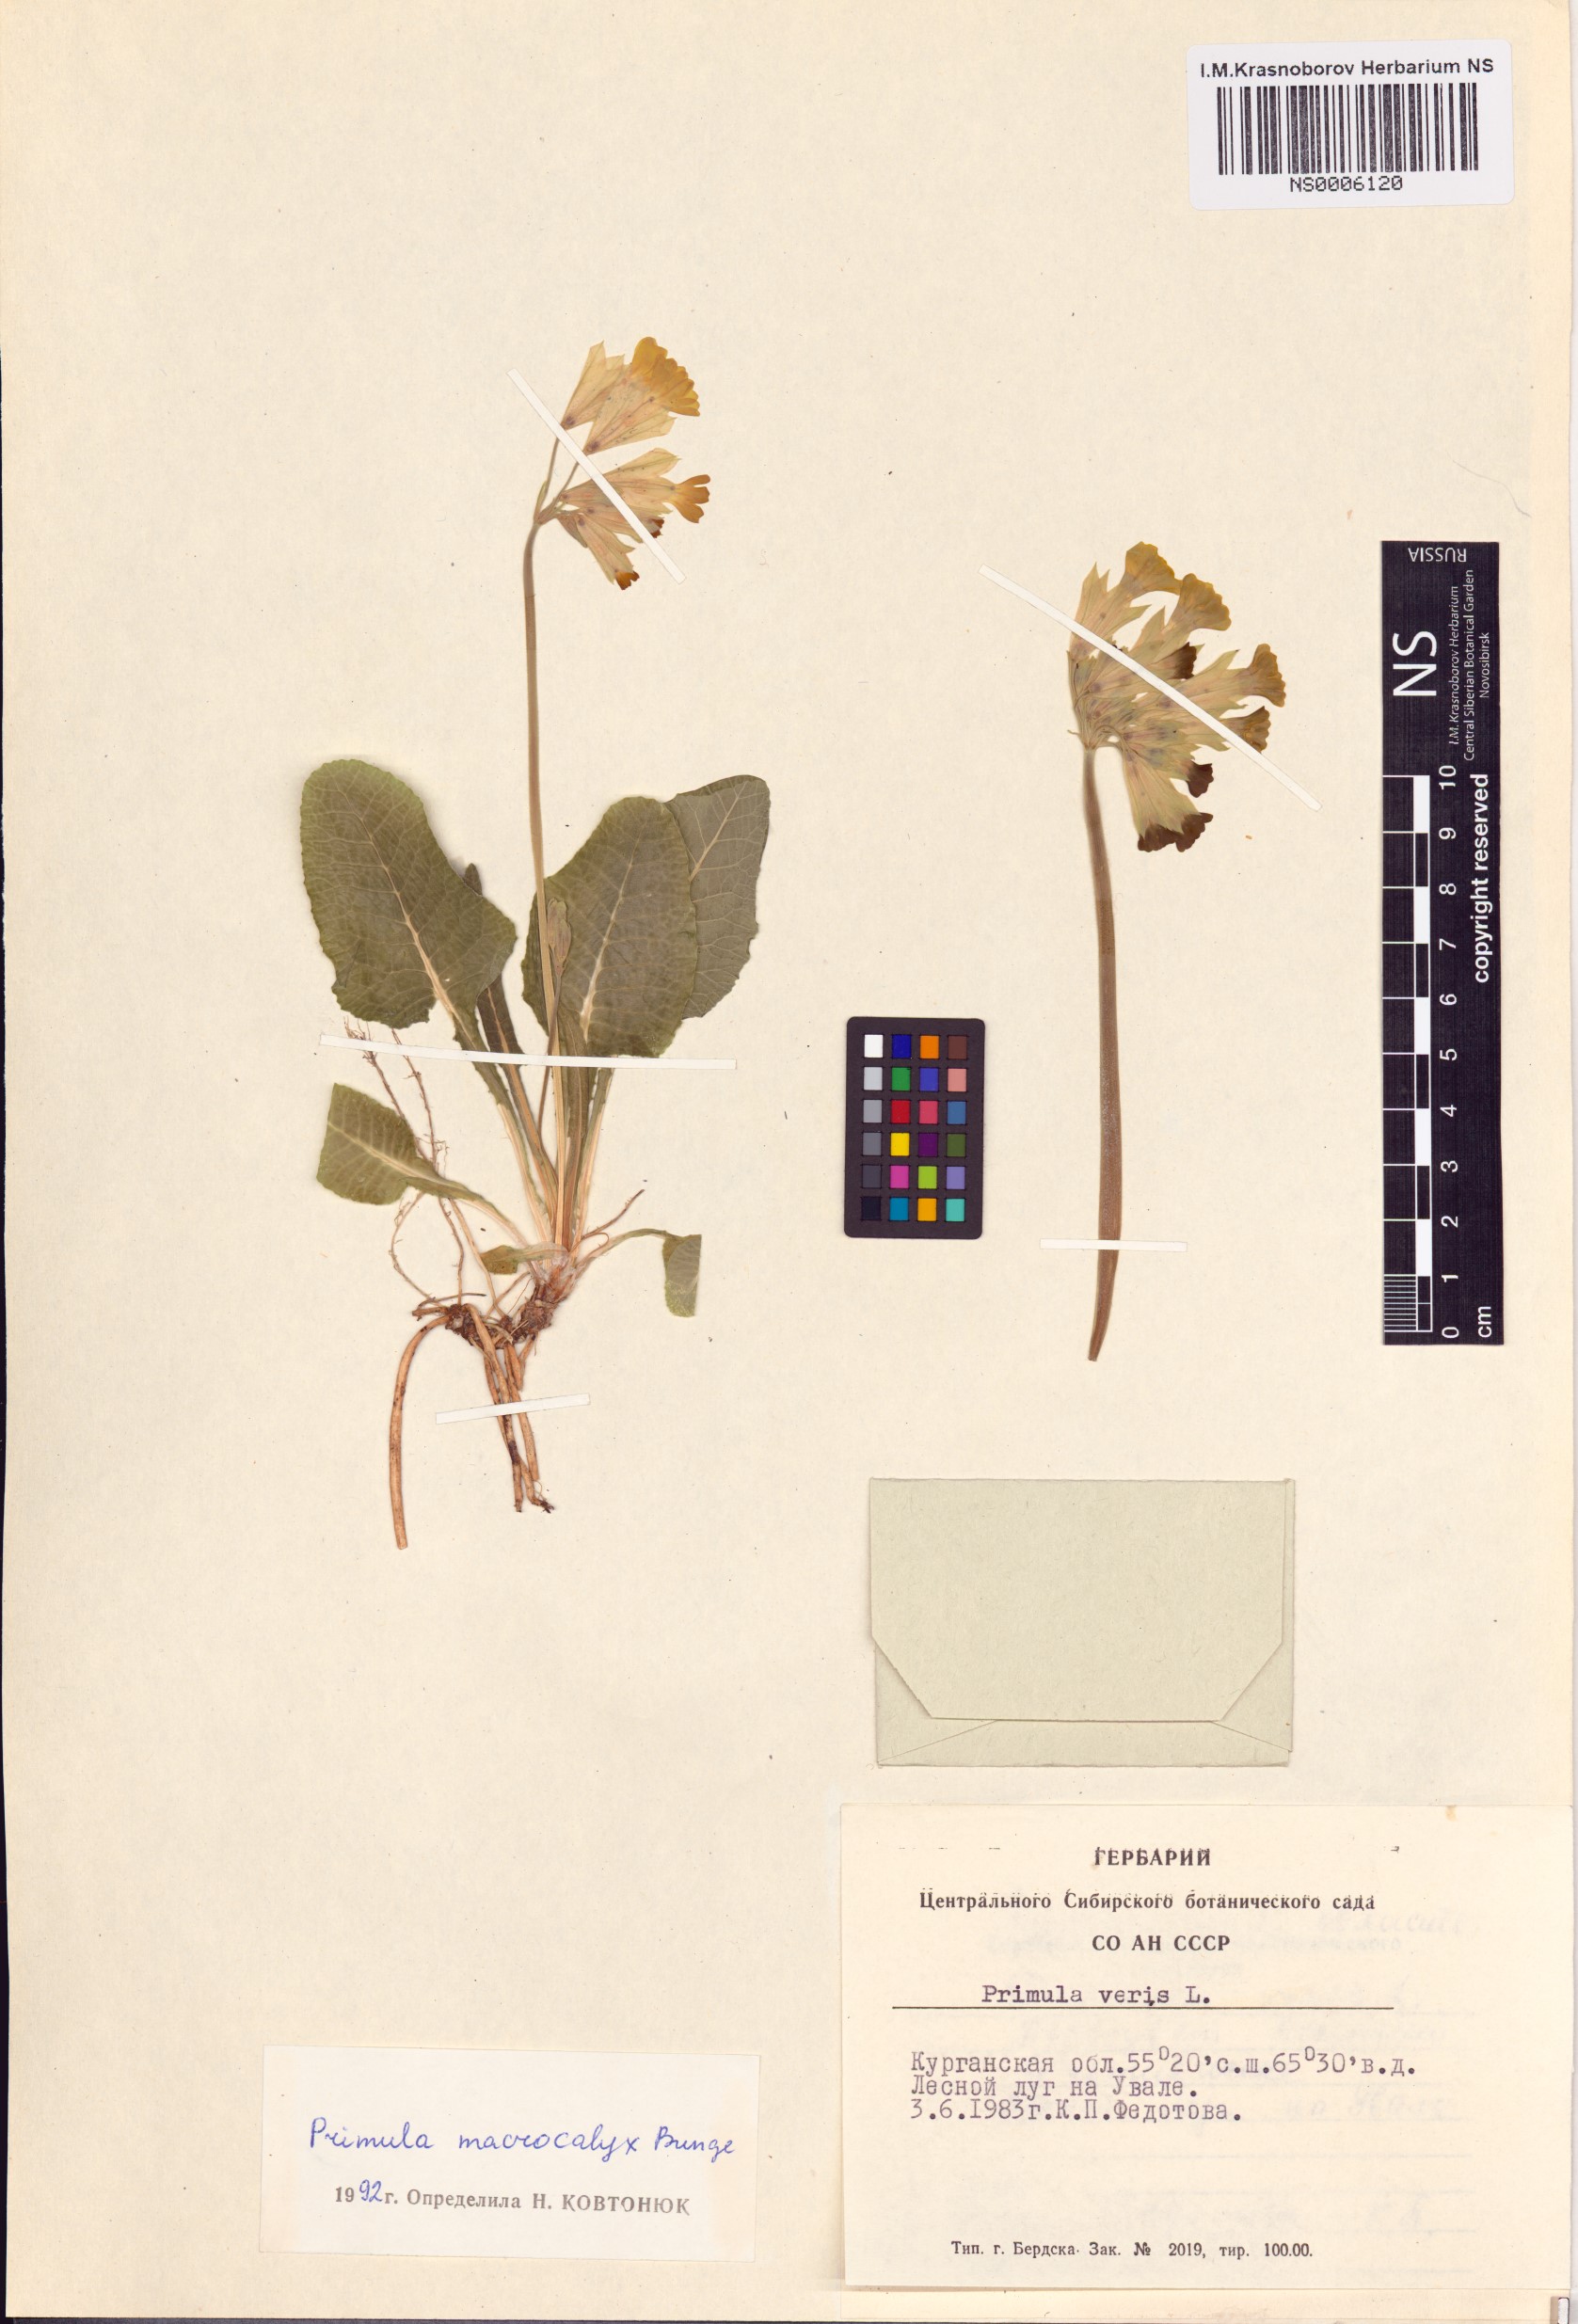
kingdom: Plantae
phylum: Tracheophyta
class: Magnoliopsida
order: Ericales
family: Primulaceae
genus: Primula
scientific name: Primula veris
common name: Cowslip
